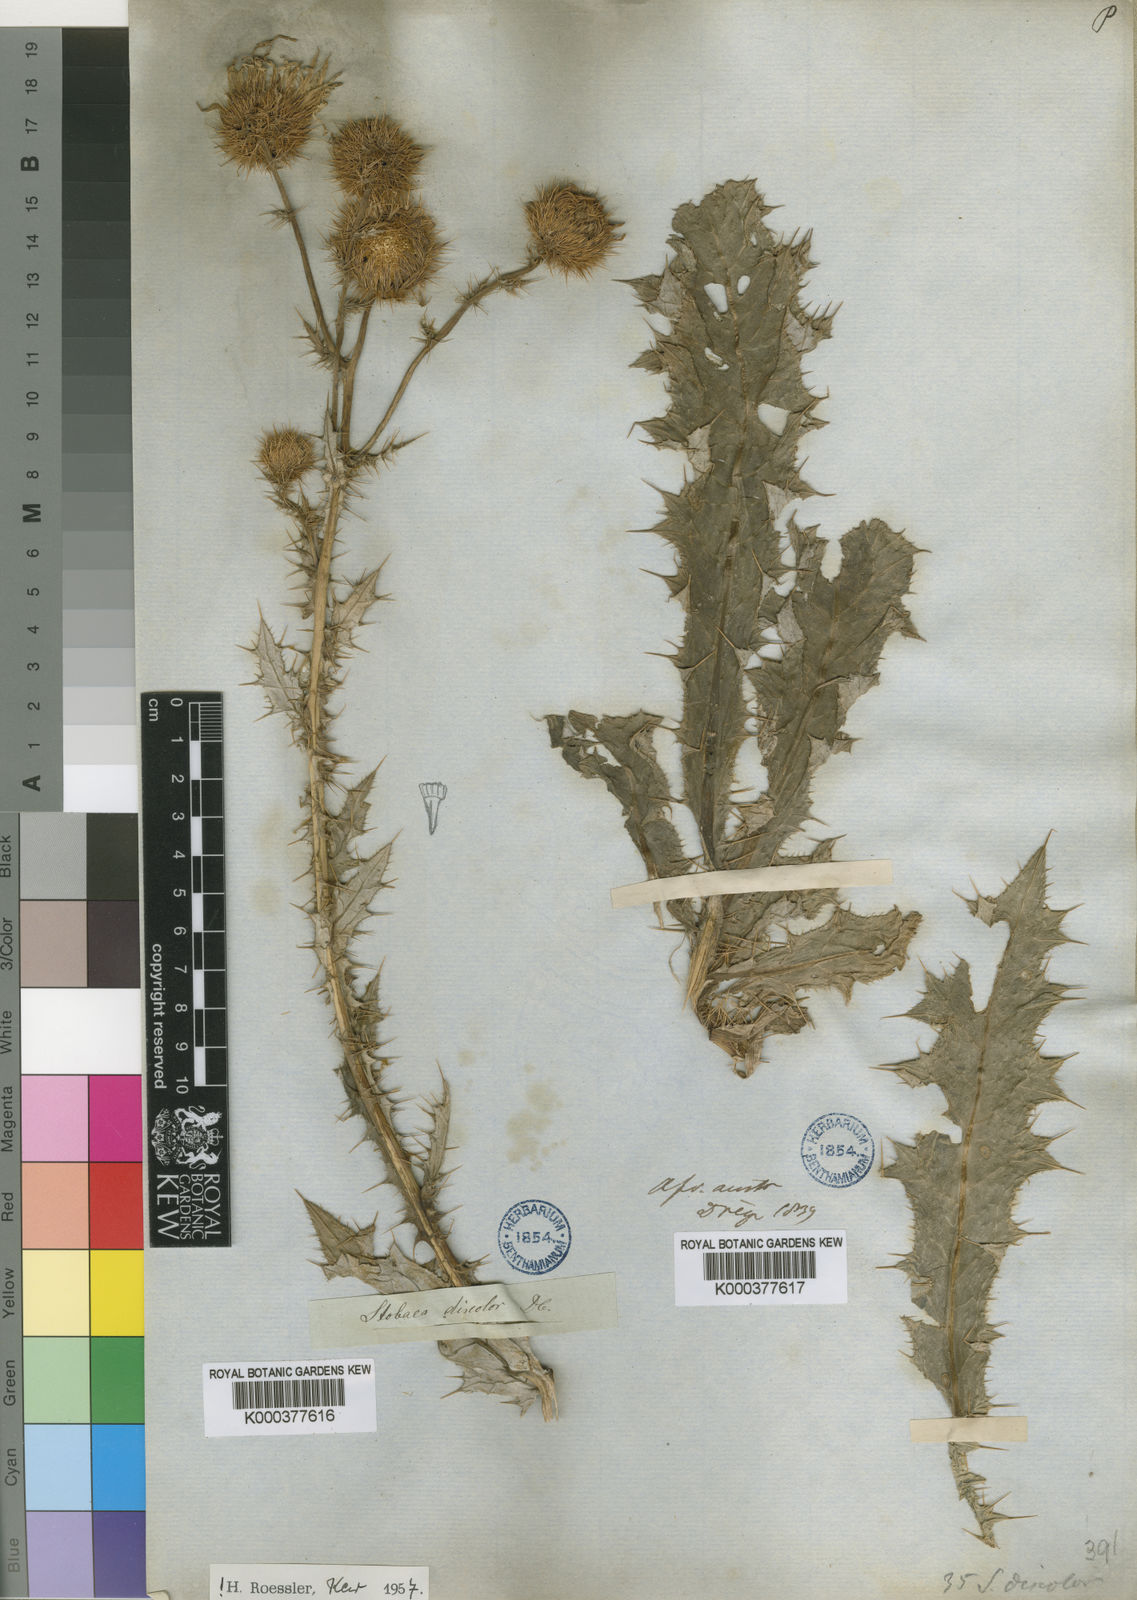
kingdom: Plantae
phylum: Tracheophyta
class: Magnoliopsida
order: Asterales
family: Asteraceae
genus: Berkheya
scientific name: Berkheya discolor
